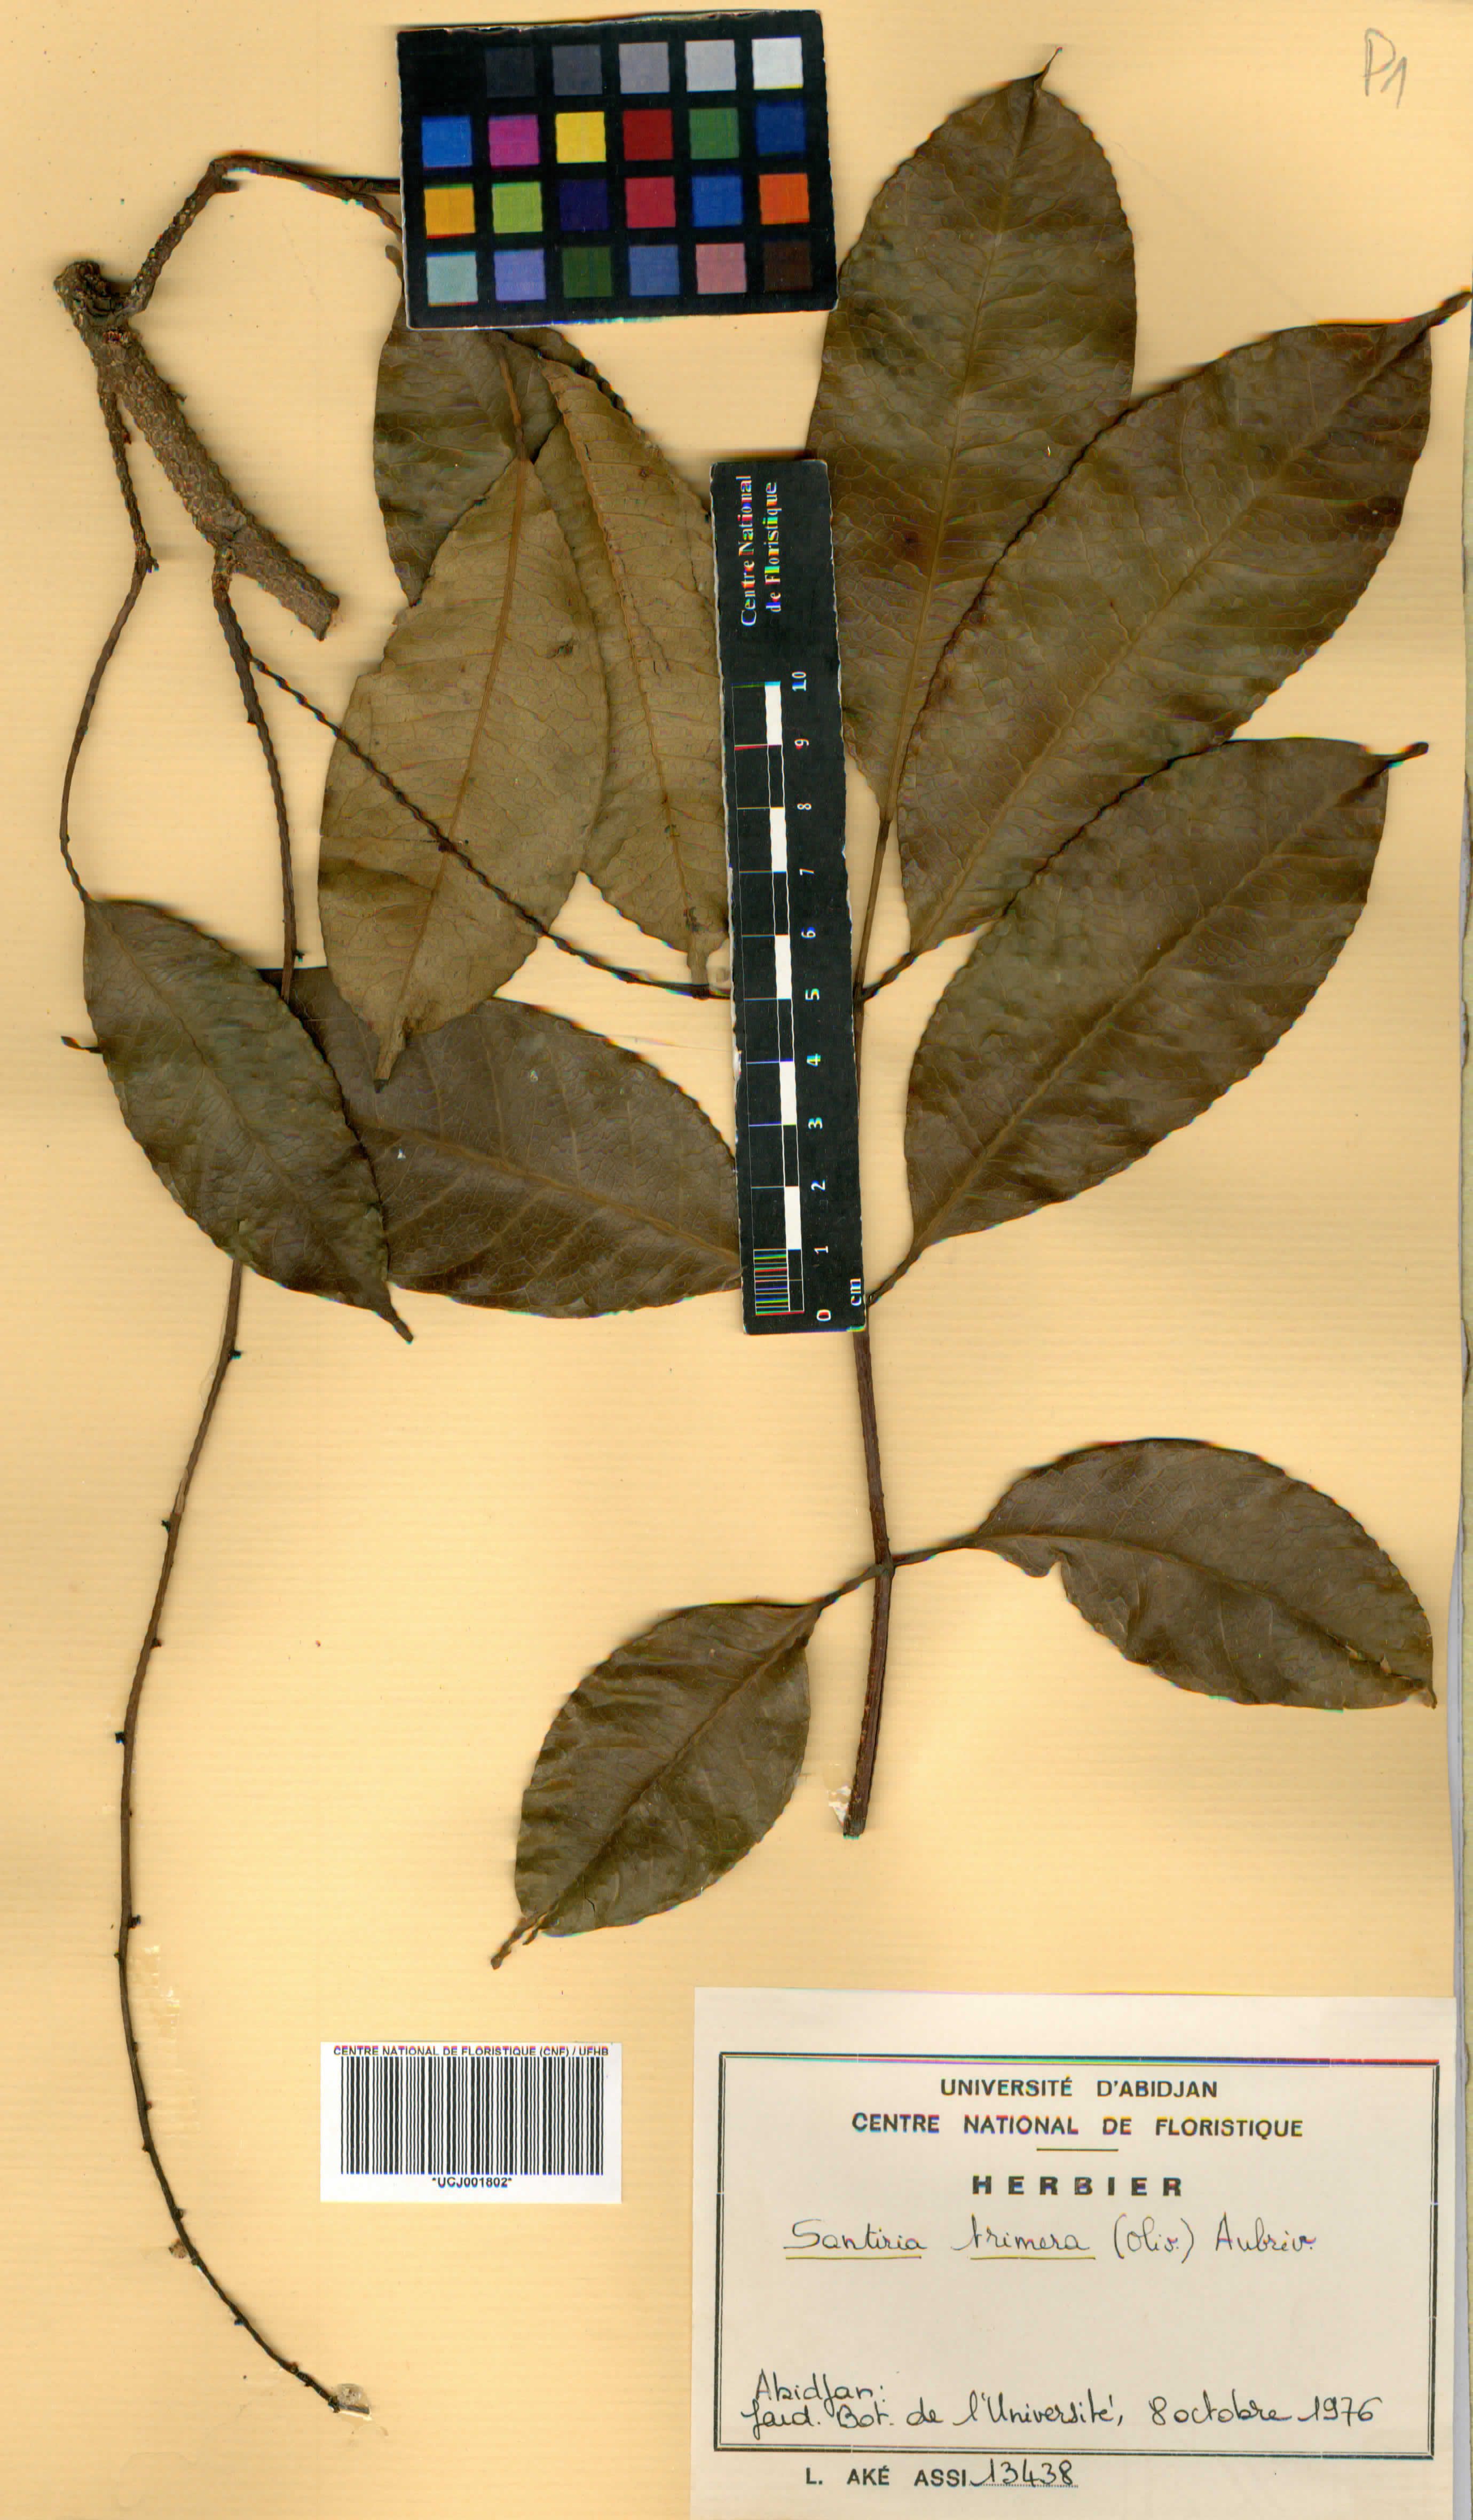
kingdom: Plantae
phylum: Tracheophyta
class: Magnoliopsida
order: Sapindales
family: Burseraceae
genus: Pachylobus
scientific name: Pachylobus trimerus
